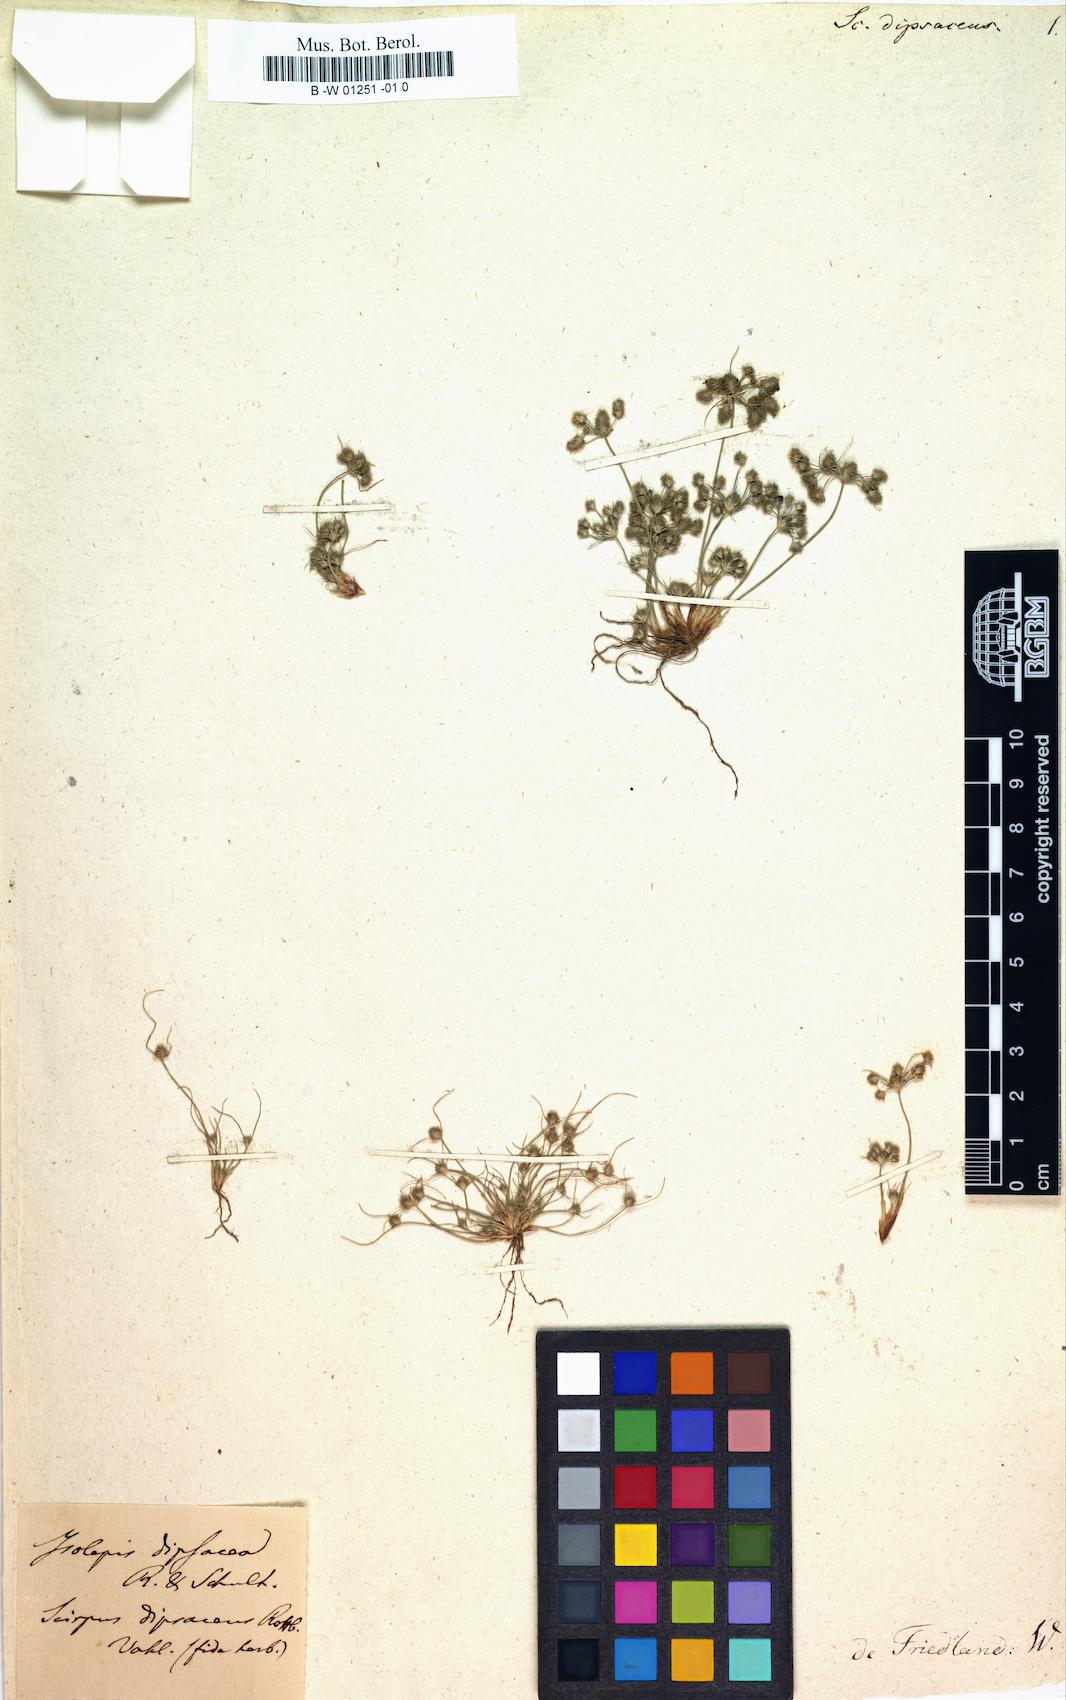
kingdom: Plantae
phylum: Tracheophyta
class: Liliopsida
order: Poales
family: Cyperaceae
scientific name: Cyperaceae
